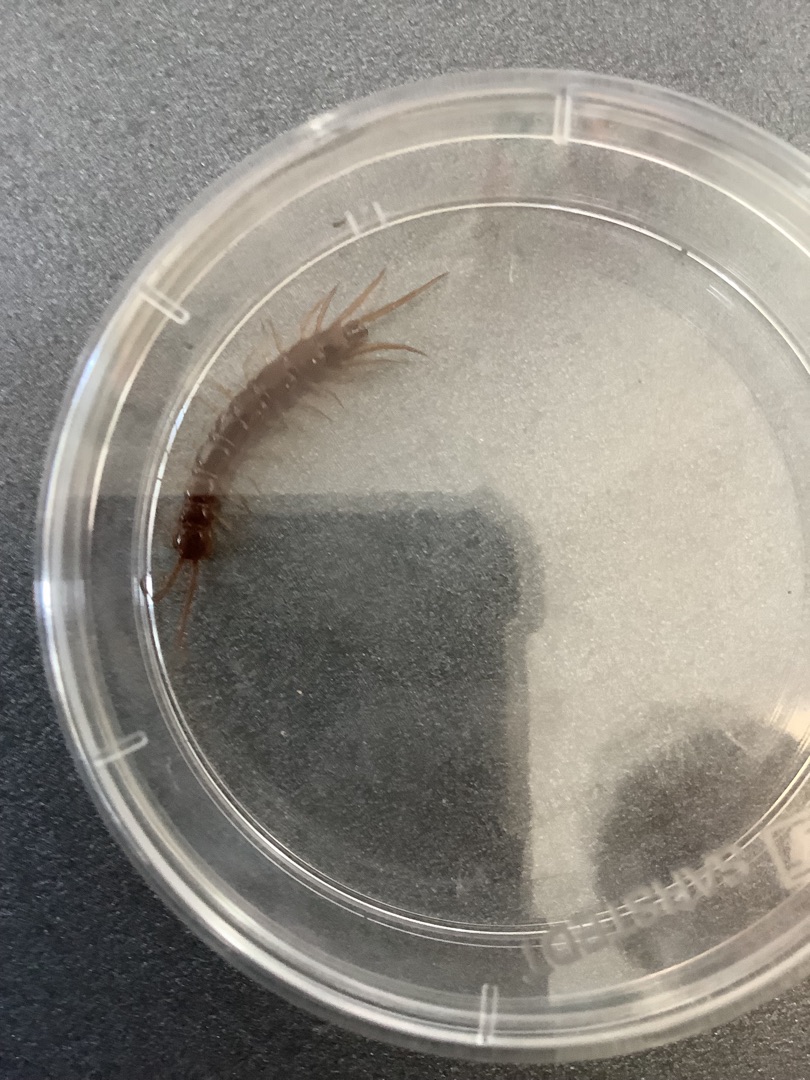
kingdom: Animalia
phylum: Arthropoda
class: Chilopoda
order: Lithobiomorpha
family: Lithobiidae
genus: Lithobius
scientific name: Lithobius forficatus
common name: Stenskolopender
